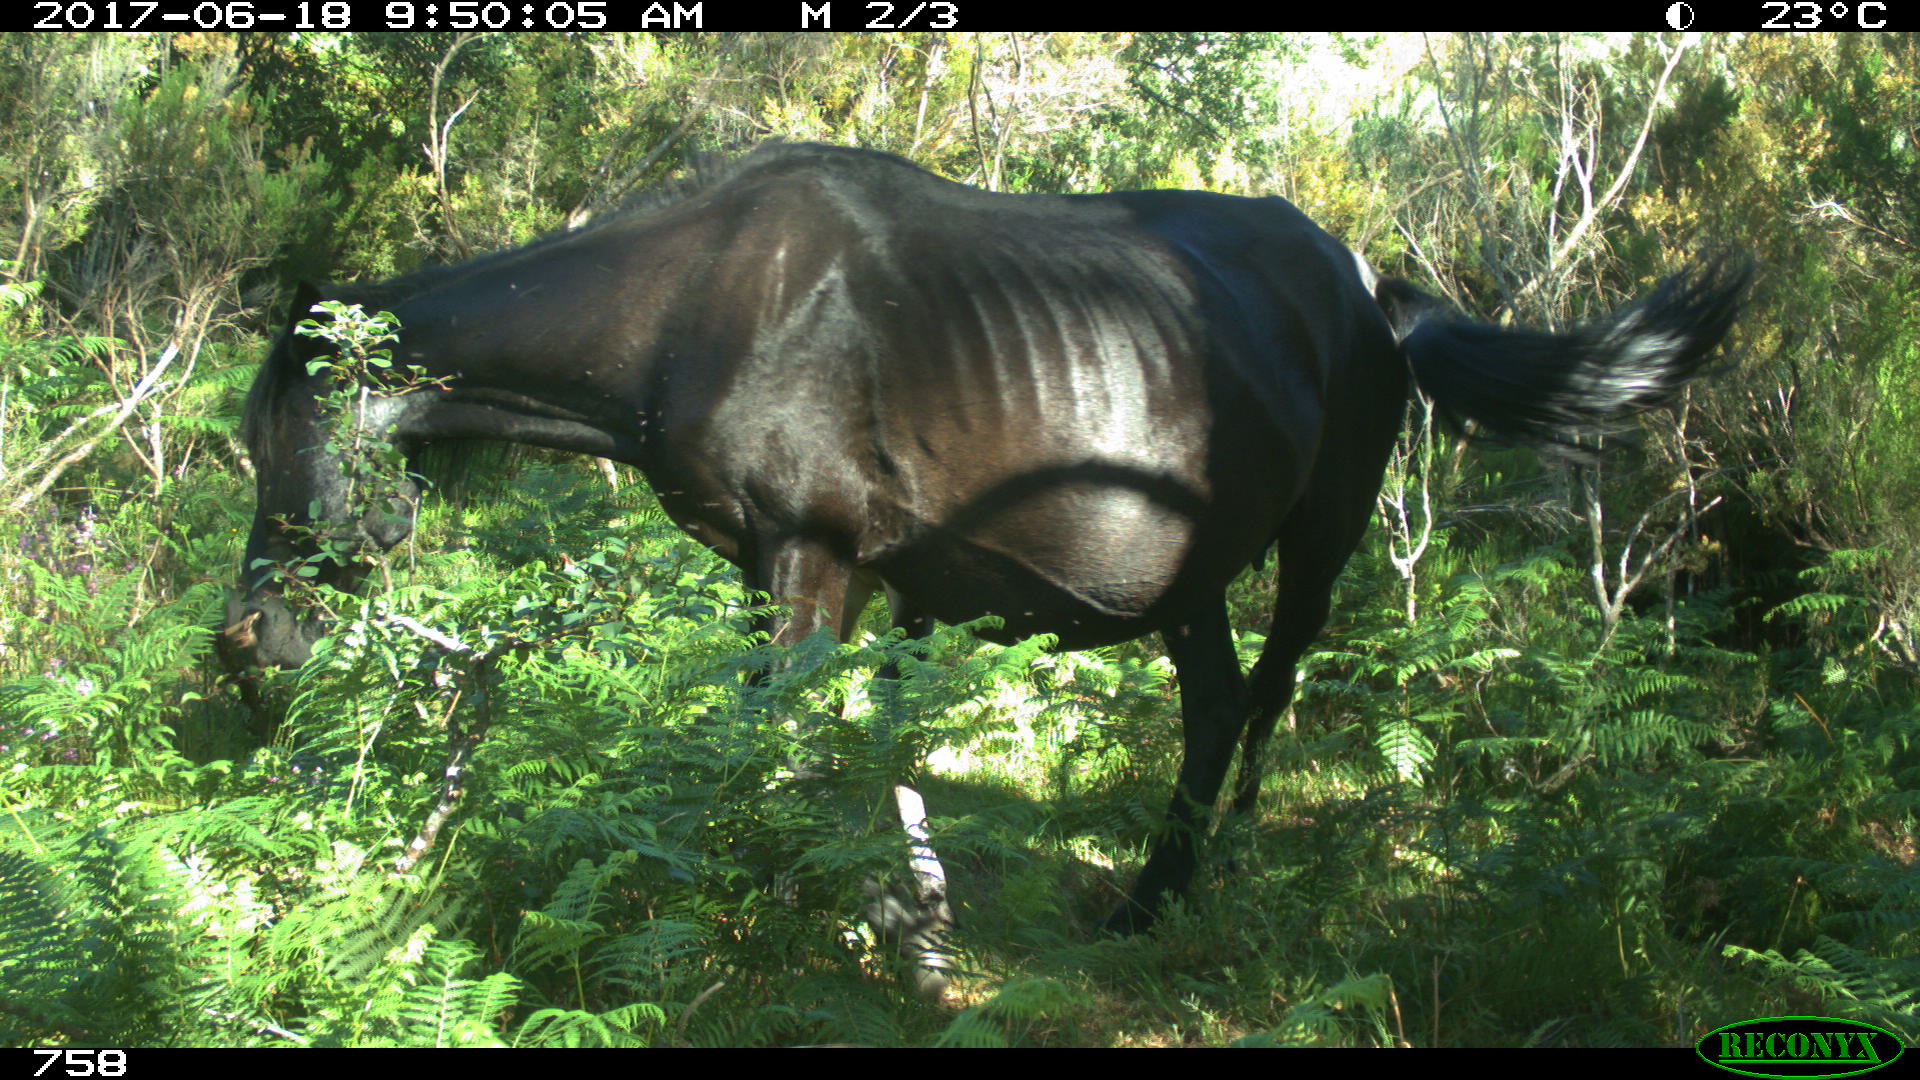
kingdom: Animalia
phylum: Chordata
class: Mammalia
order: Perissodactyla
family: Equidae
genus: Equus
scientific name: Equus caballus
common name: Horse
